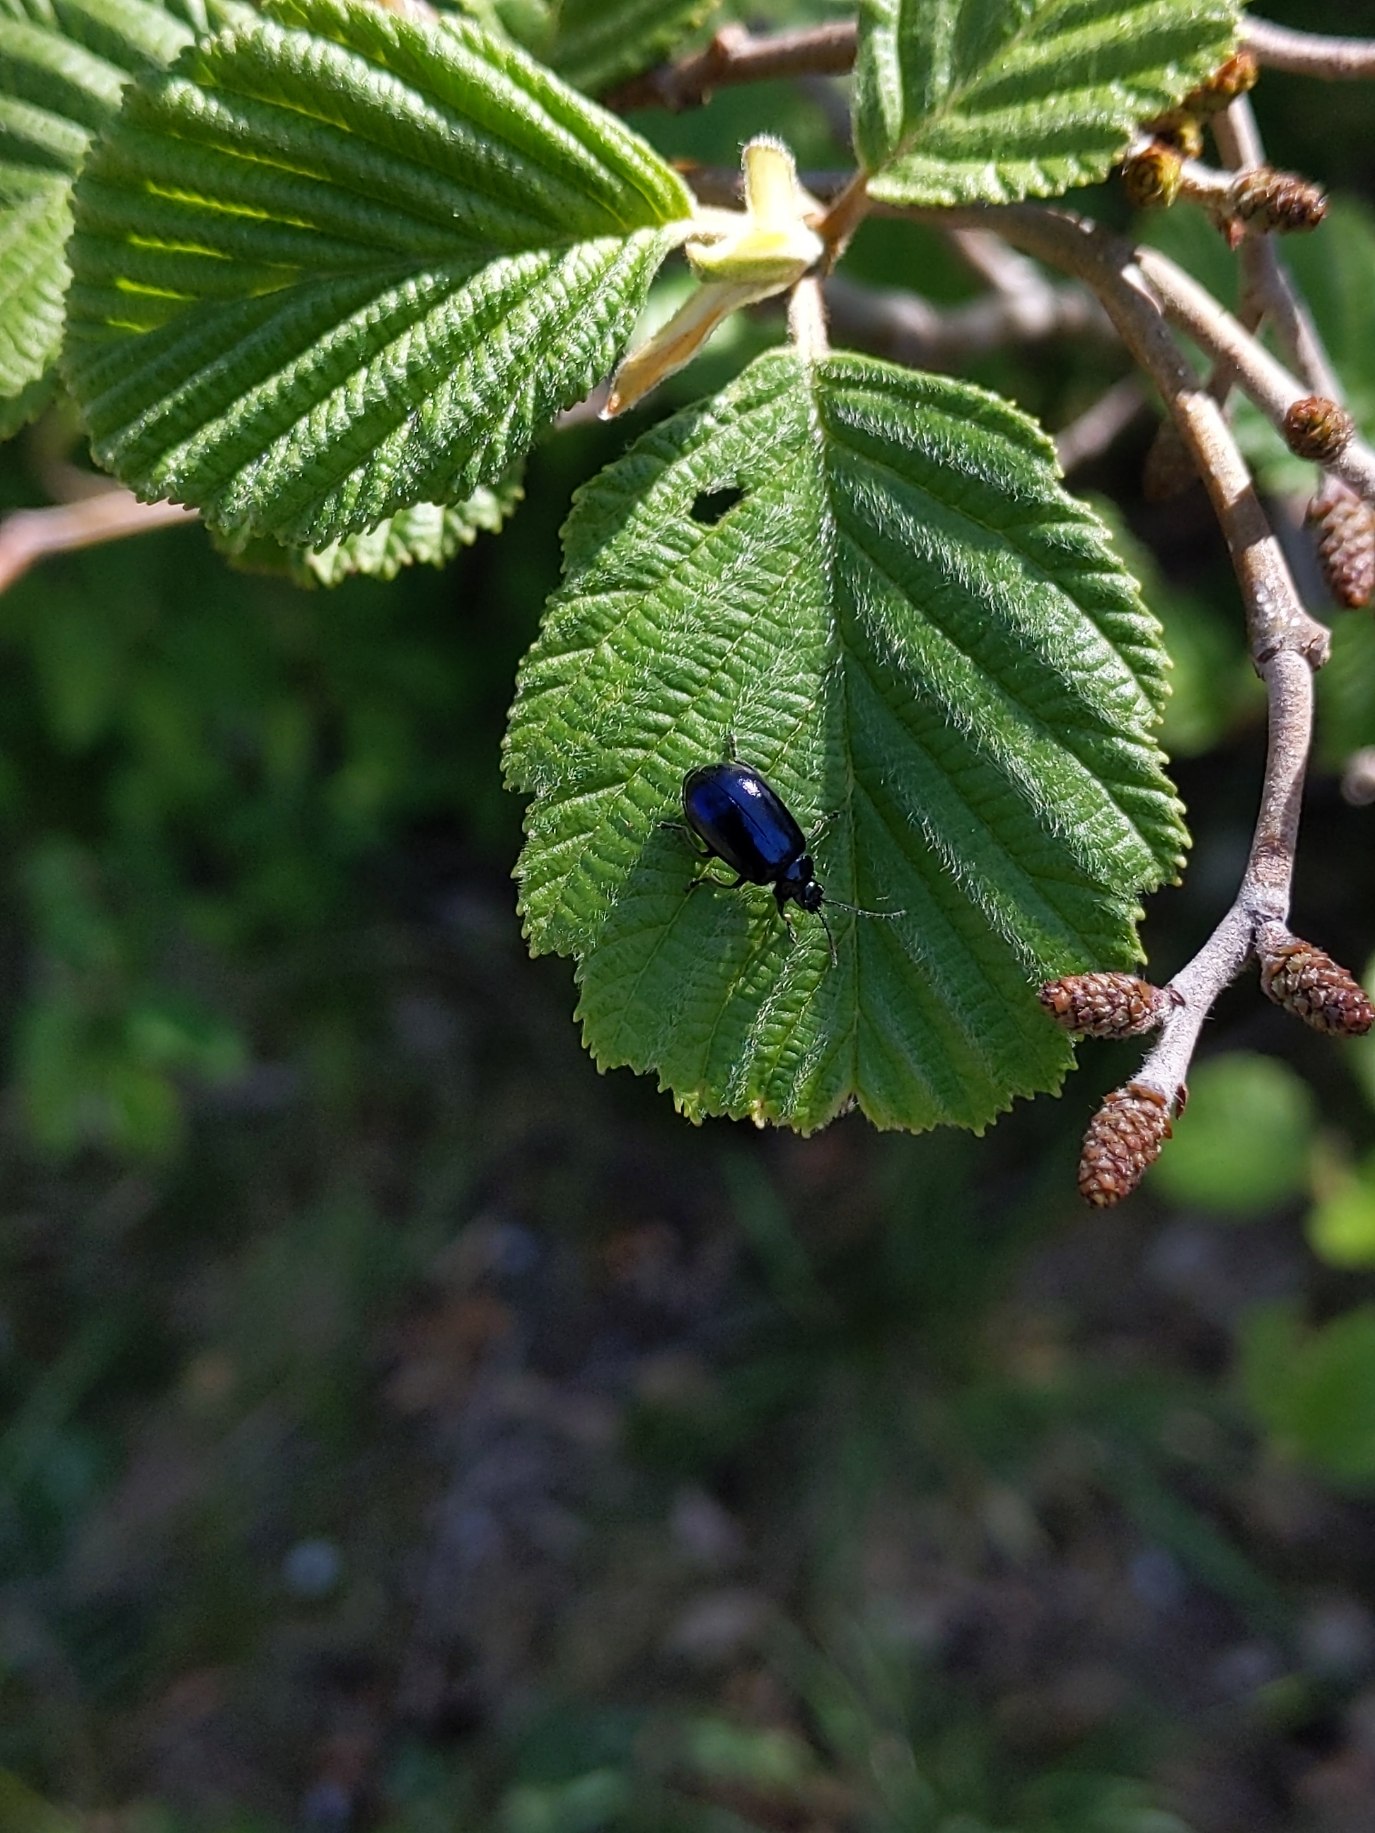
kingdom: Animalia
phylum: Arthropoda
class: Insecta
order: Coleoptera
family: Chrysomelidae
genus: Agelastica
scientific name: Agelastica alni
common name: Ellebladbille
